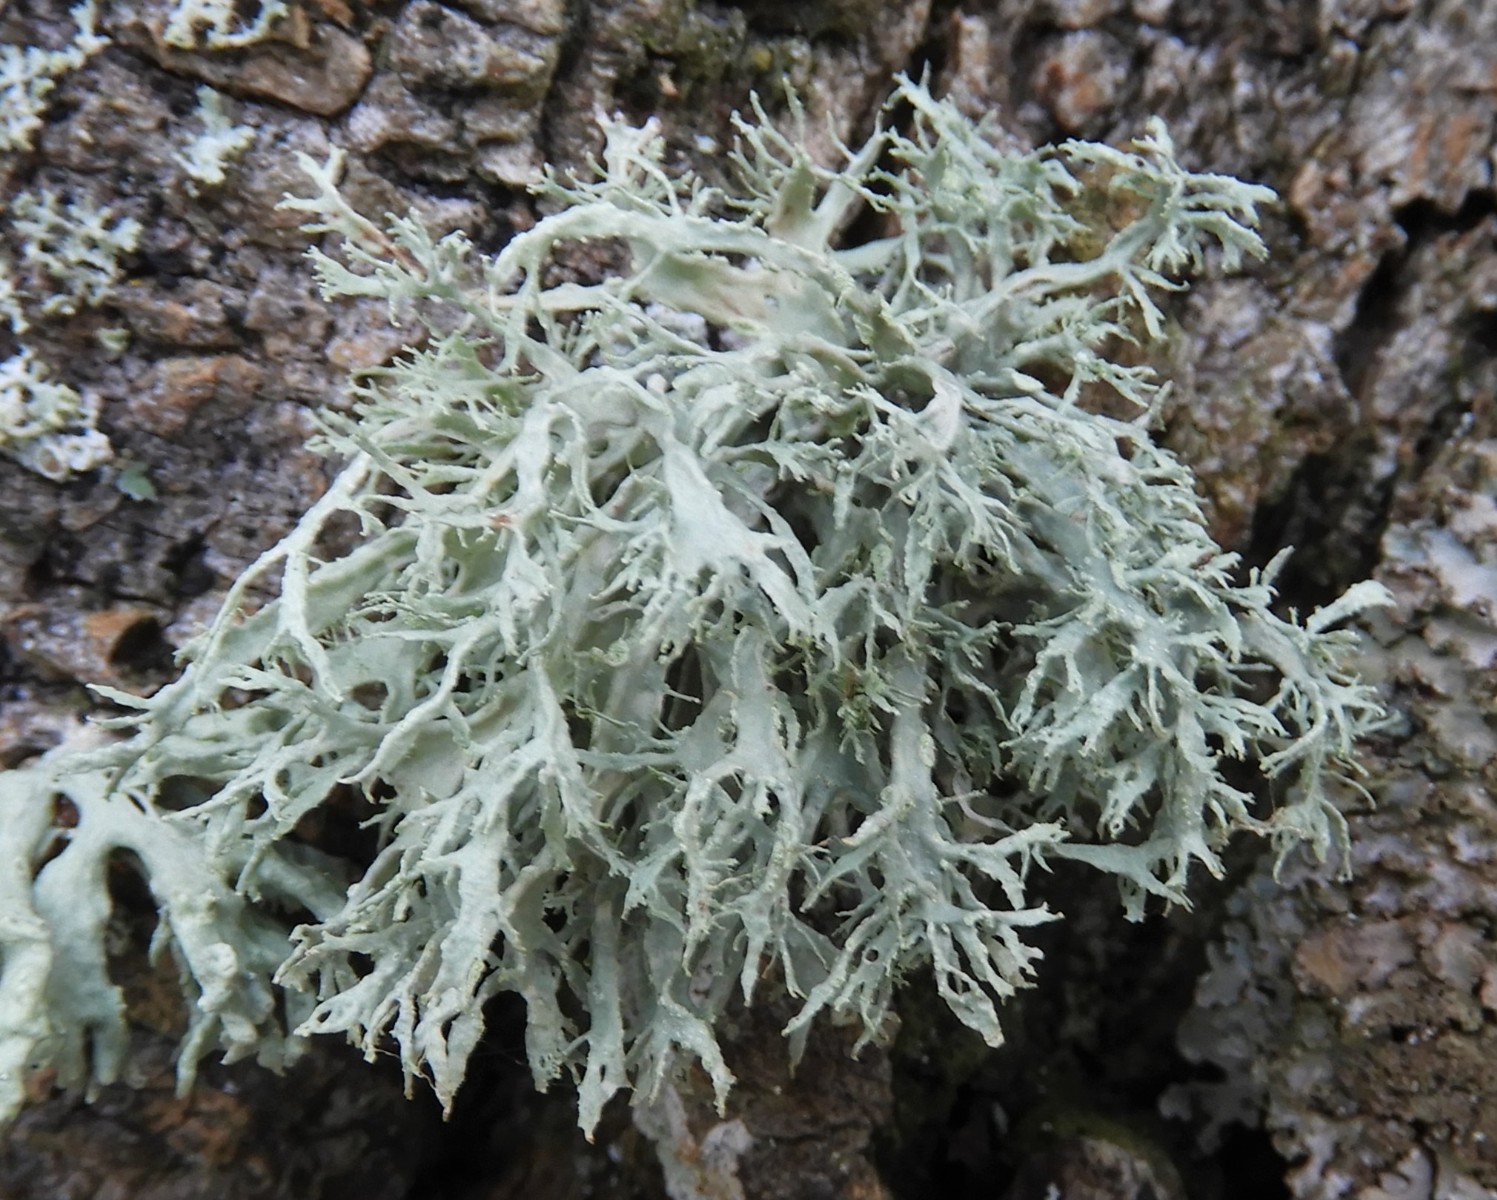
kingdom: Fungi
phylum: Ascomycota
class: Lecanoromycetes
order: Lecanorales
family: Parmeliaceae
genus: Evernia
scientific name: Evernia prunastri
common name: almindelig slåenlav
